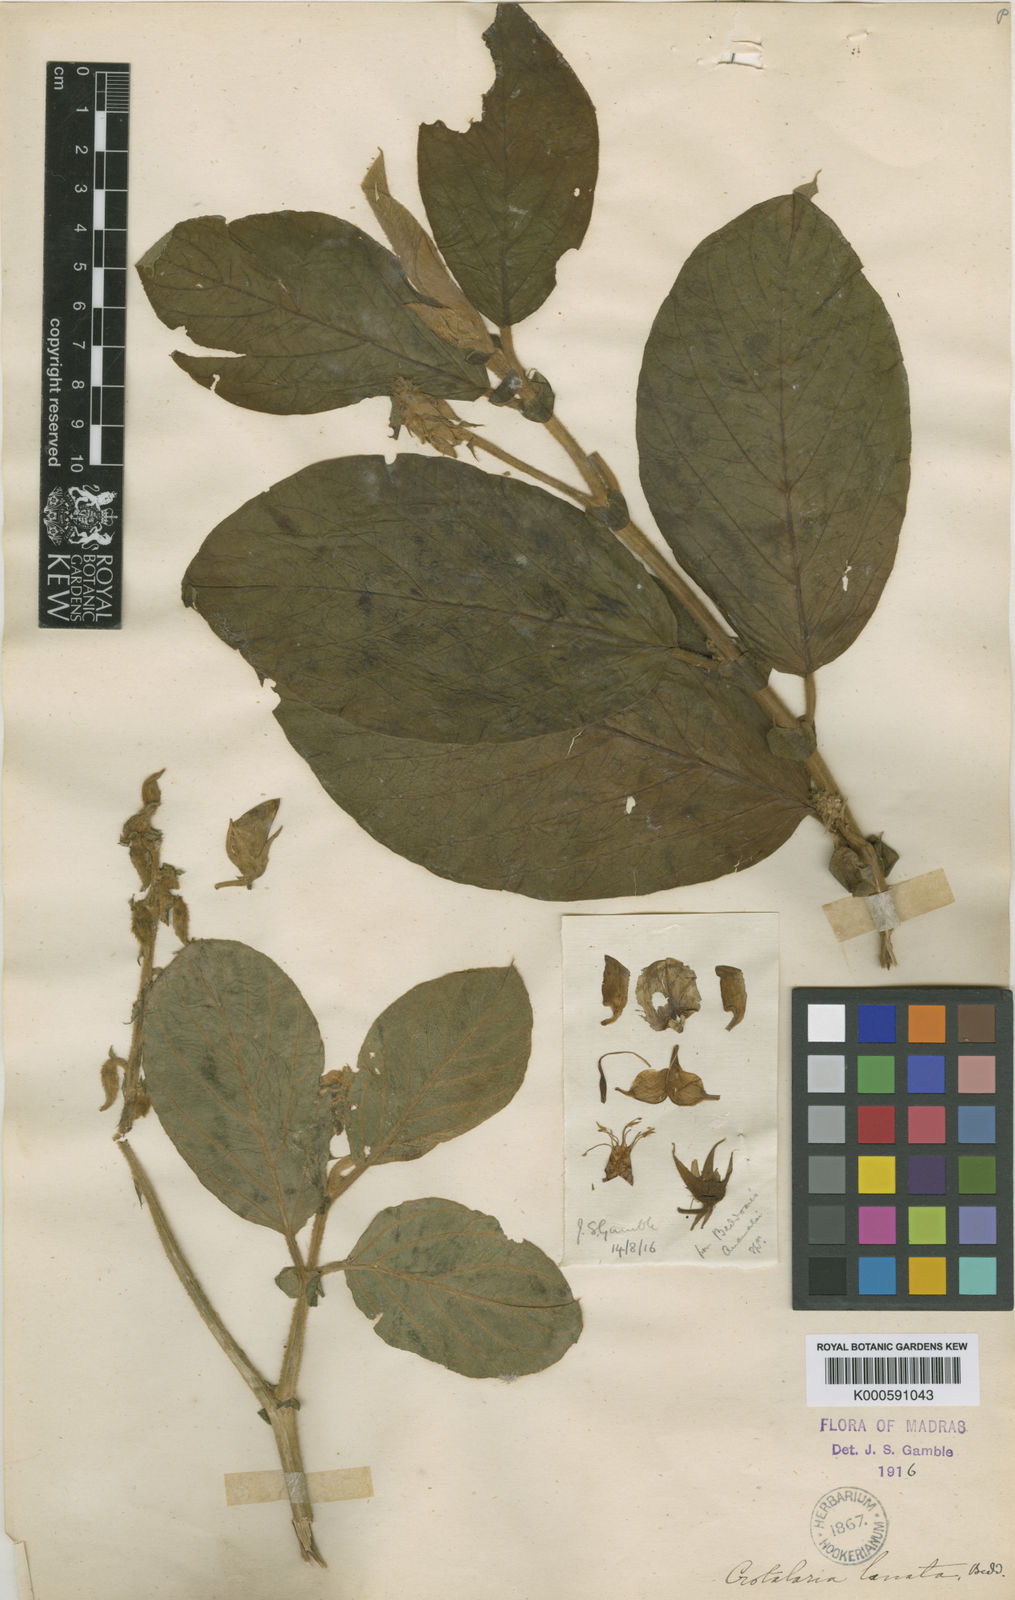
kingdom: Plantae
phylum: Tracheophyta
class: Magnoliopsida
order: Fabales
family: Fabaceae
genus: Crotalaria
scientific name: Crotalaria beddomeana
